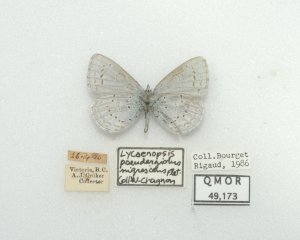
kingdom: Animalia
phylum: Arthropoda
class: Insecta
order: Lepidoptera
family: Lycaenidae
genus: Celastrina
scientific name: Celastrina ladon
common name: Echo Azure
